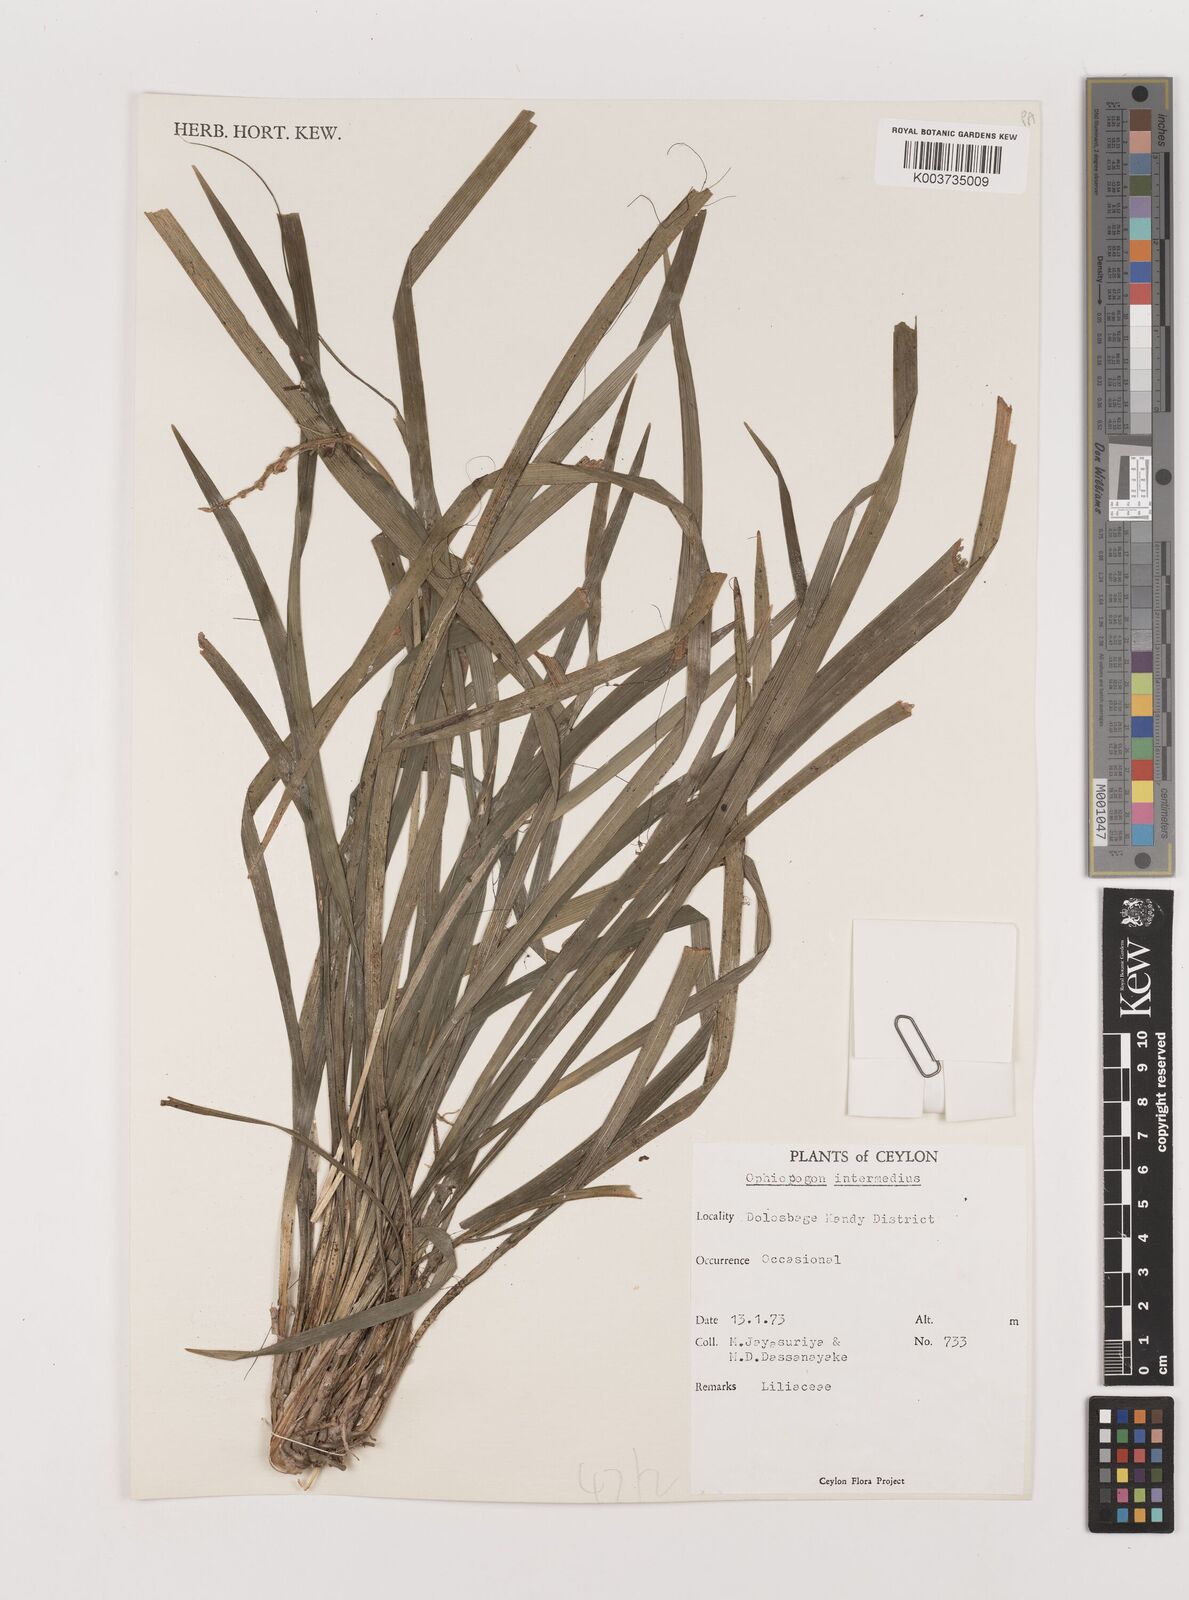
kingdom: Plantae
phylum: Tracheophyta
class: Liliopsida
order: Asparagales
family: Asparagaceae
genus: Ophiopogon
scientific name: Ophiopogon intermedius
